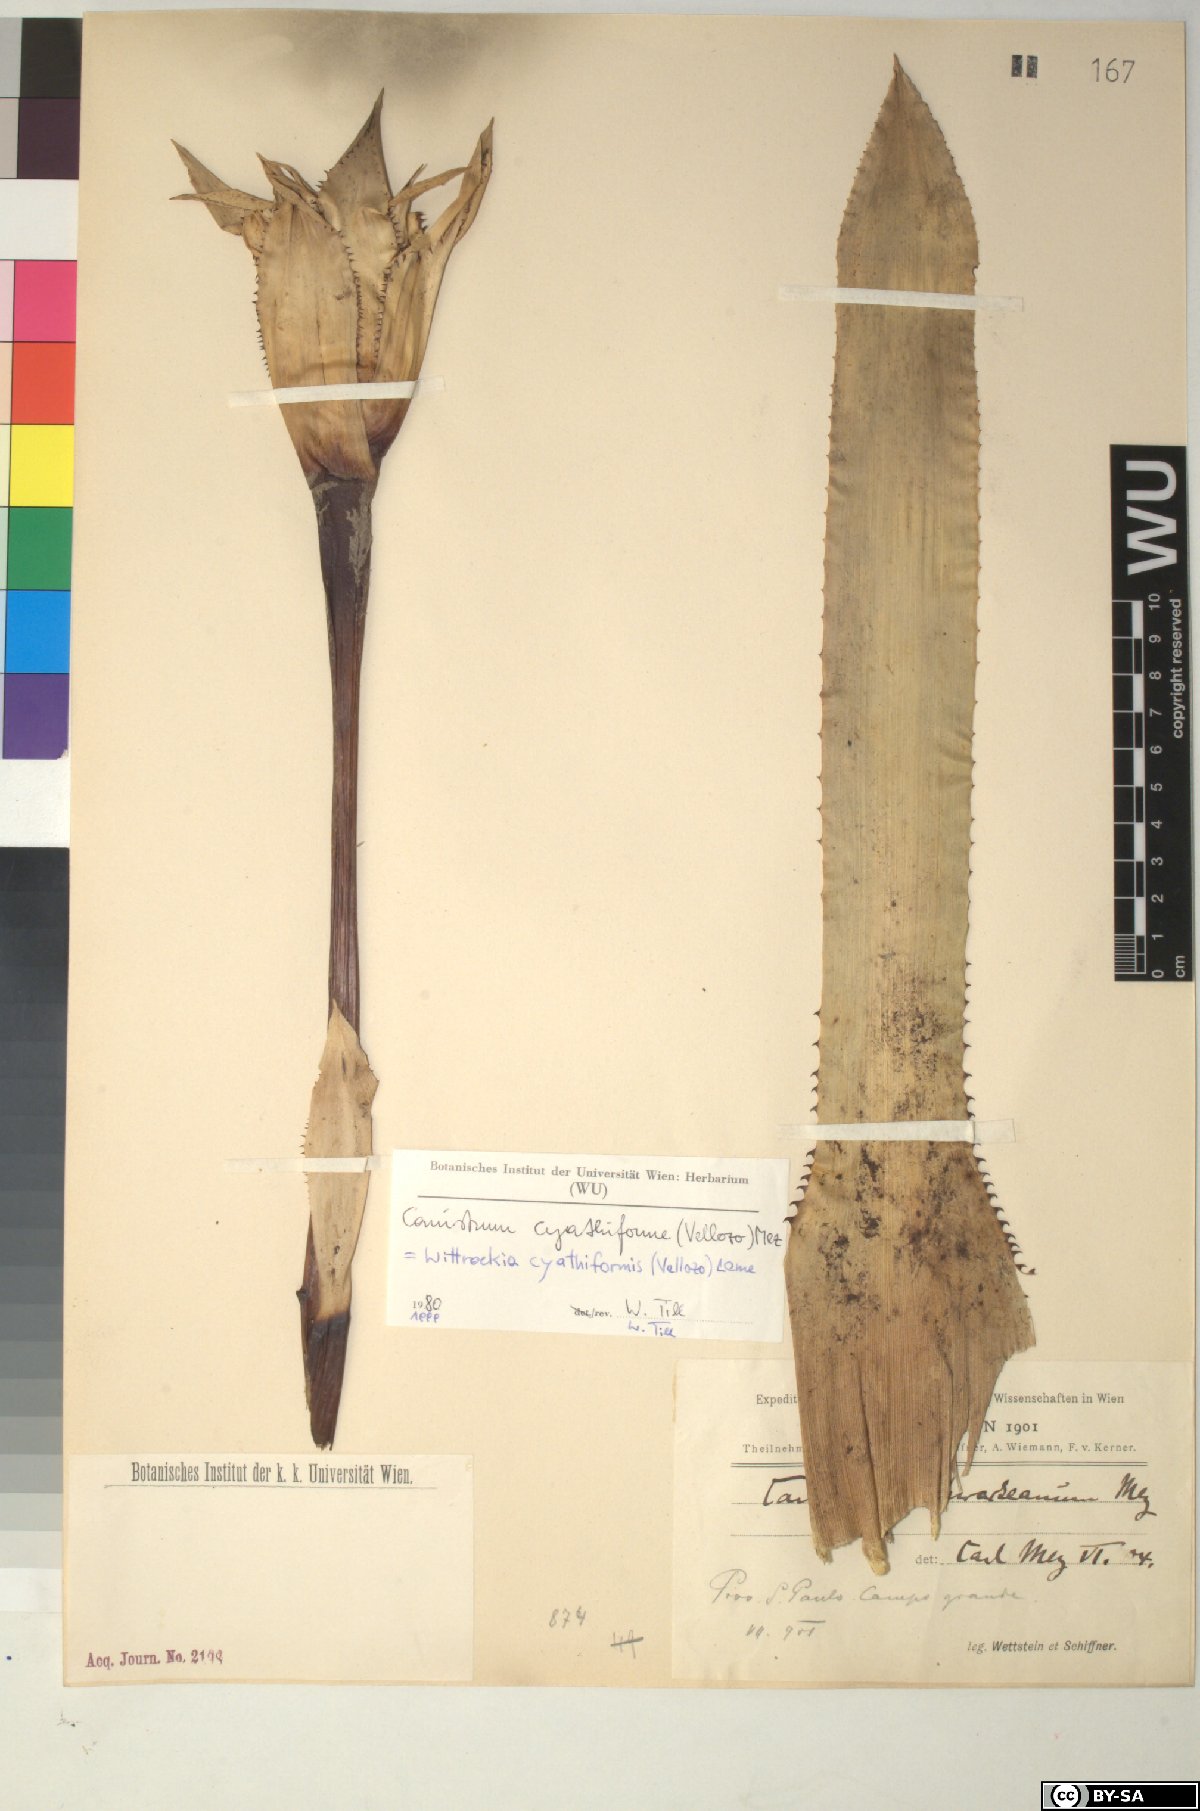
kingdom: Plantae
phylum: Tracheophyta
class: Liliopsida
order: Poales
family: Bromeliaceae
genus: Wittrockia
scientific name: Wittrockia cyathiformis
